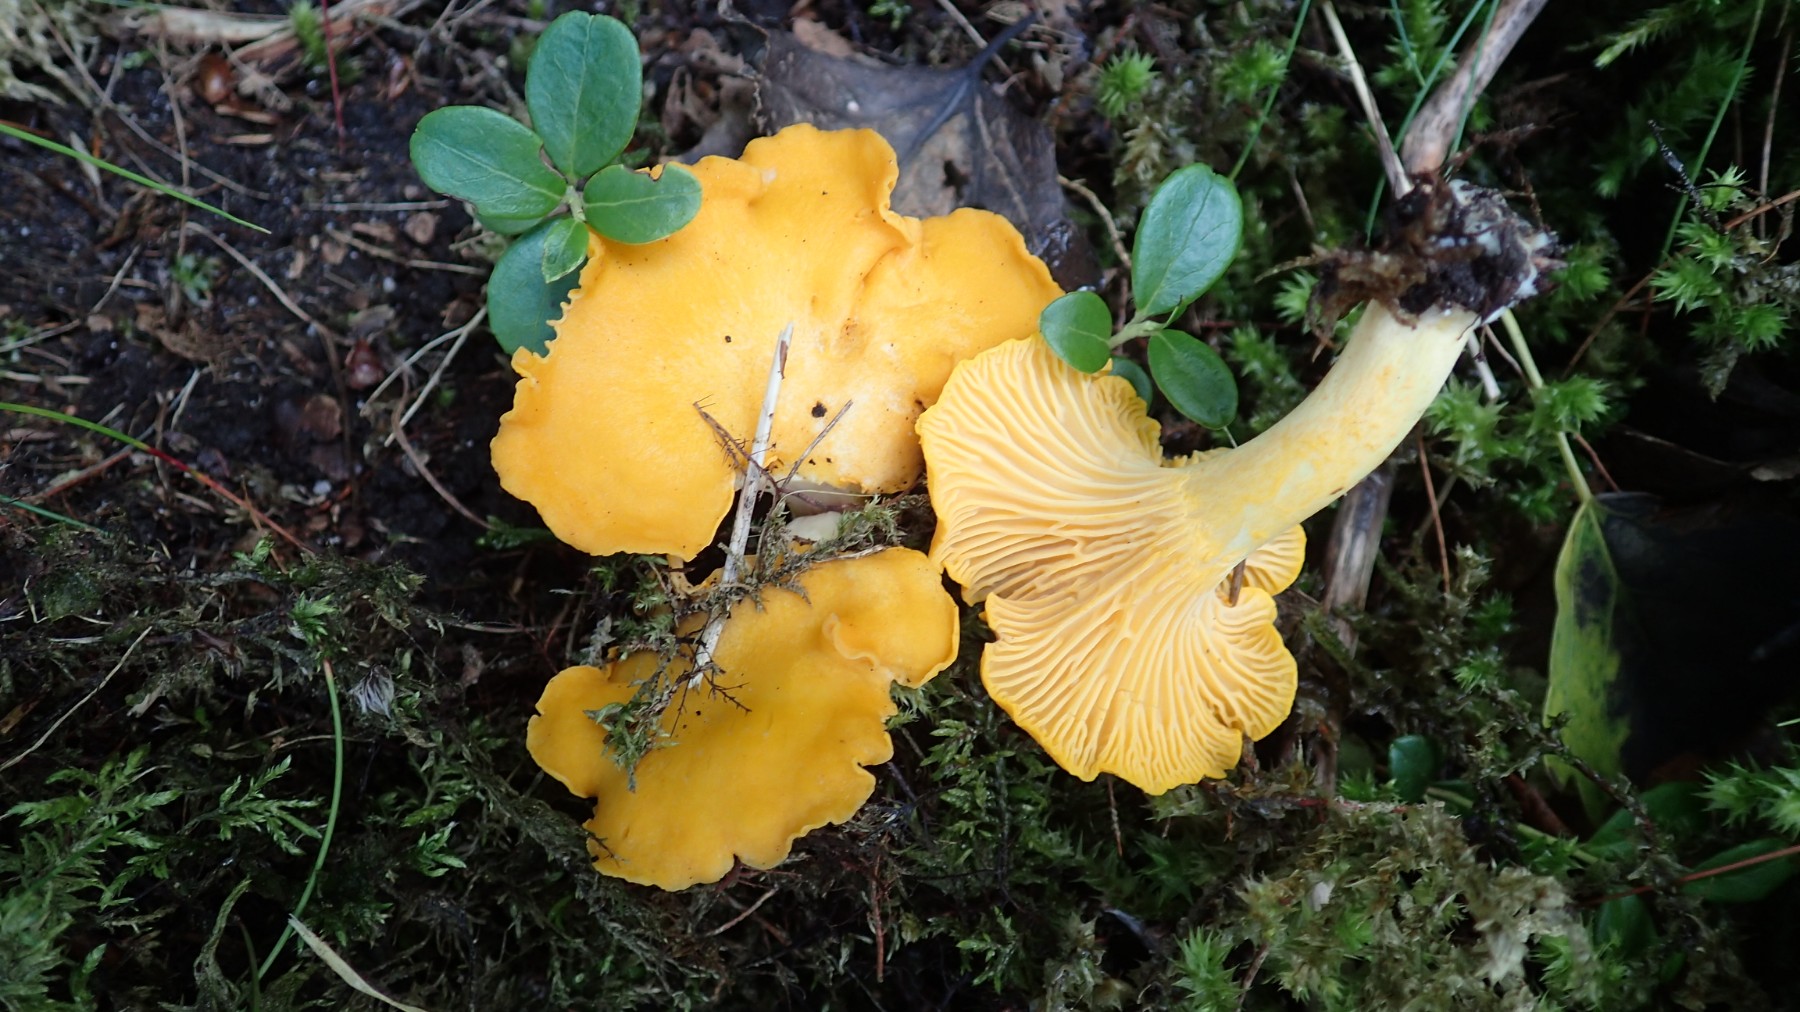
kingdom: Fungi
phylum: Basidiomycota
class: Agaricomycetes
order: Cantharellales
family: Hydnaceae
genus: Cantharellus
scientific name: Cantharellus cibarius
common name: almindelig kantarel
